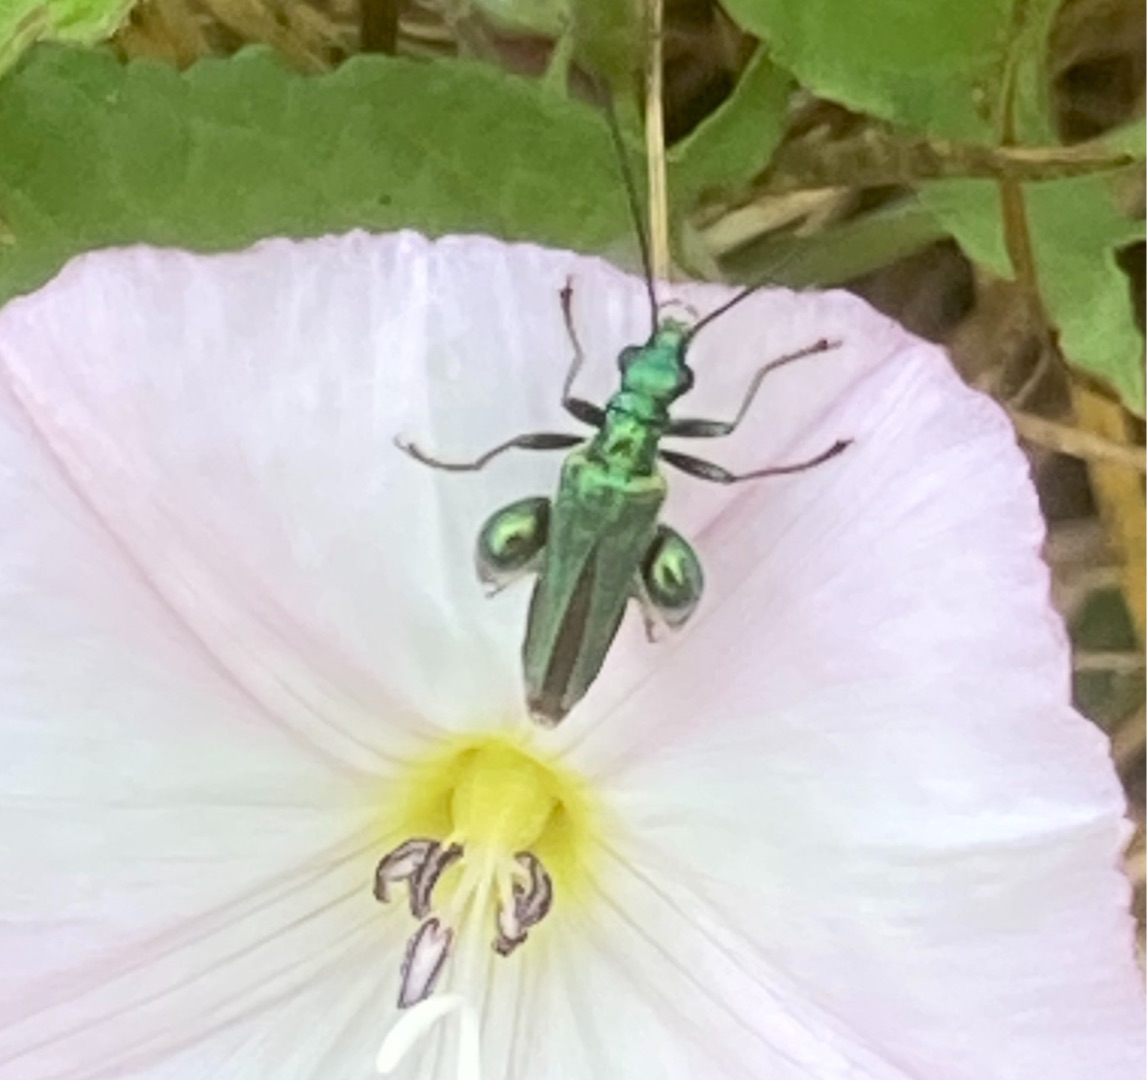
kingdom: Animalia
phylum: Arthropoda
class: Insecta
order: Coleoptera
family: Oedemeridae
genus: Oedemera
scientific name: Oedemera nobilis
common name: Tyklårssolbille
